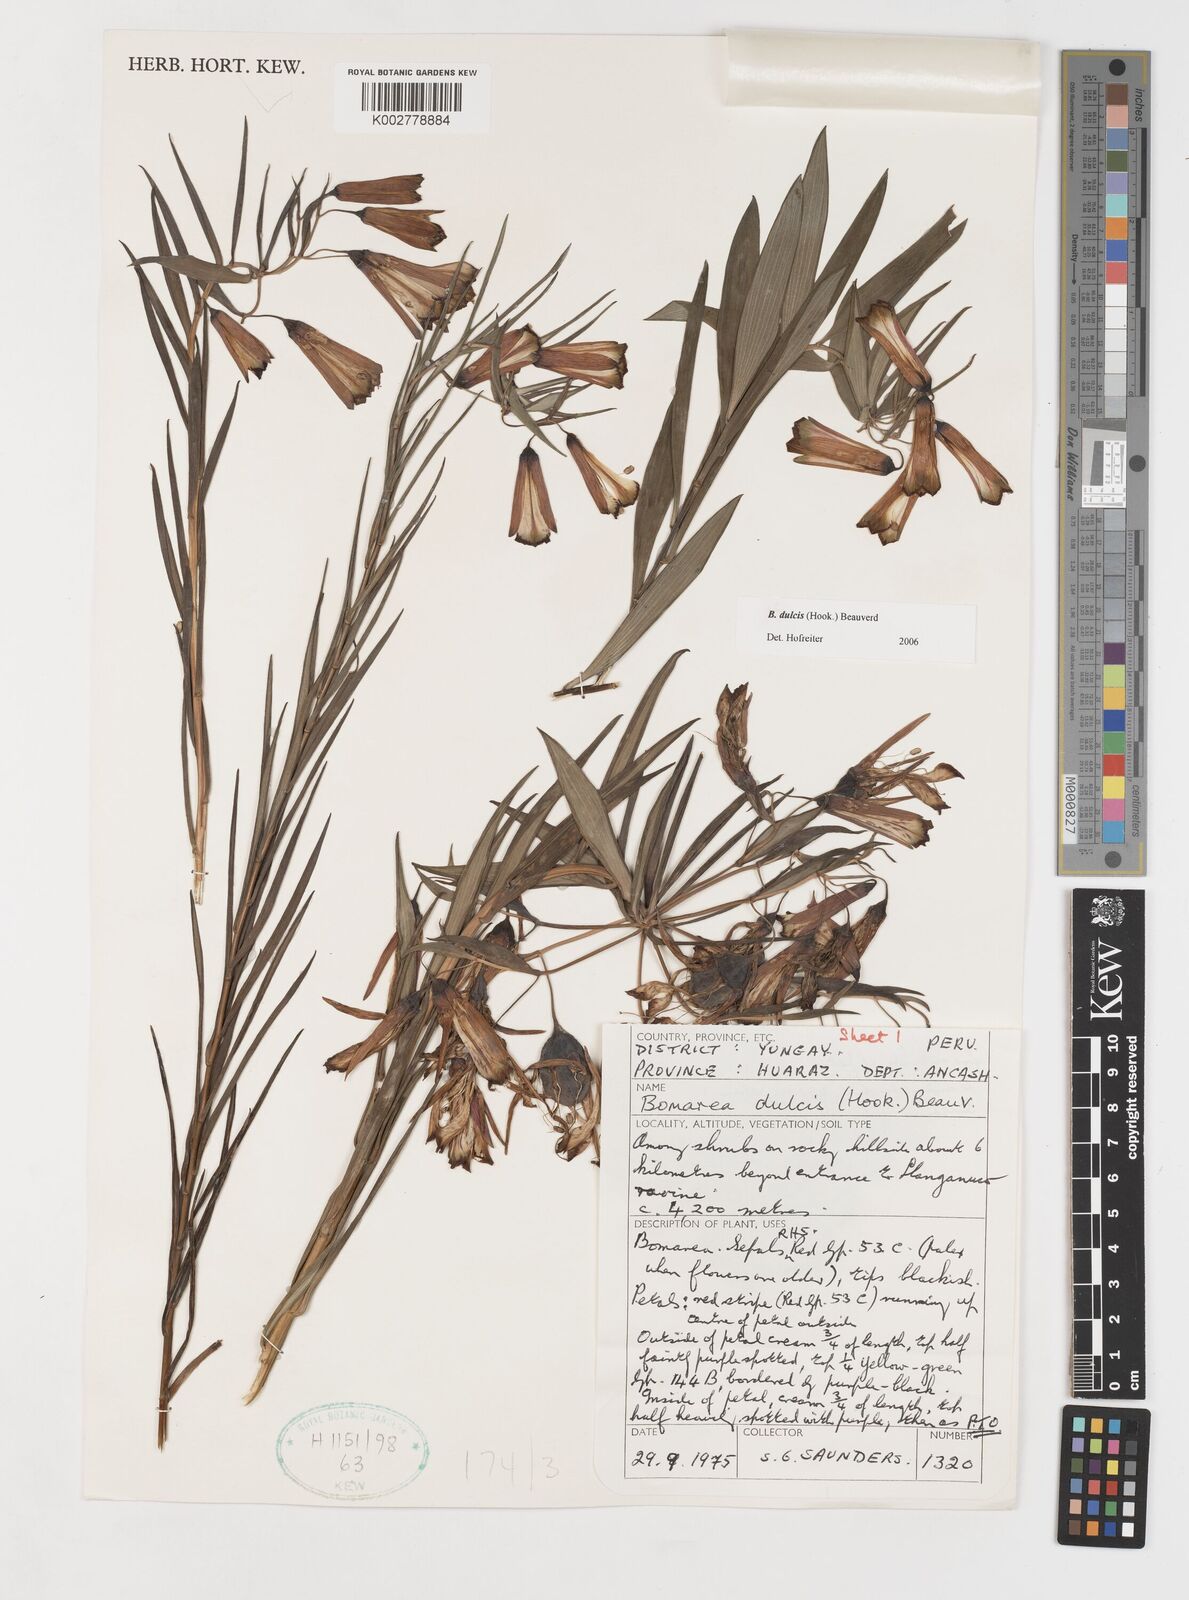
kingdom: Plantae
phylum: Tracheophyta
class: Liliopsida
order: Liliales
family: Alstroemeriaceae
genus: Bomarea
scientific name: Bomarea dulcis
